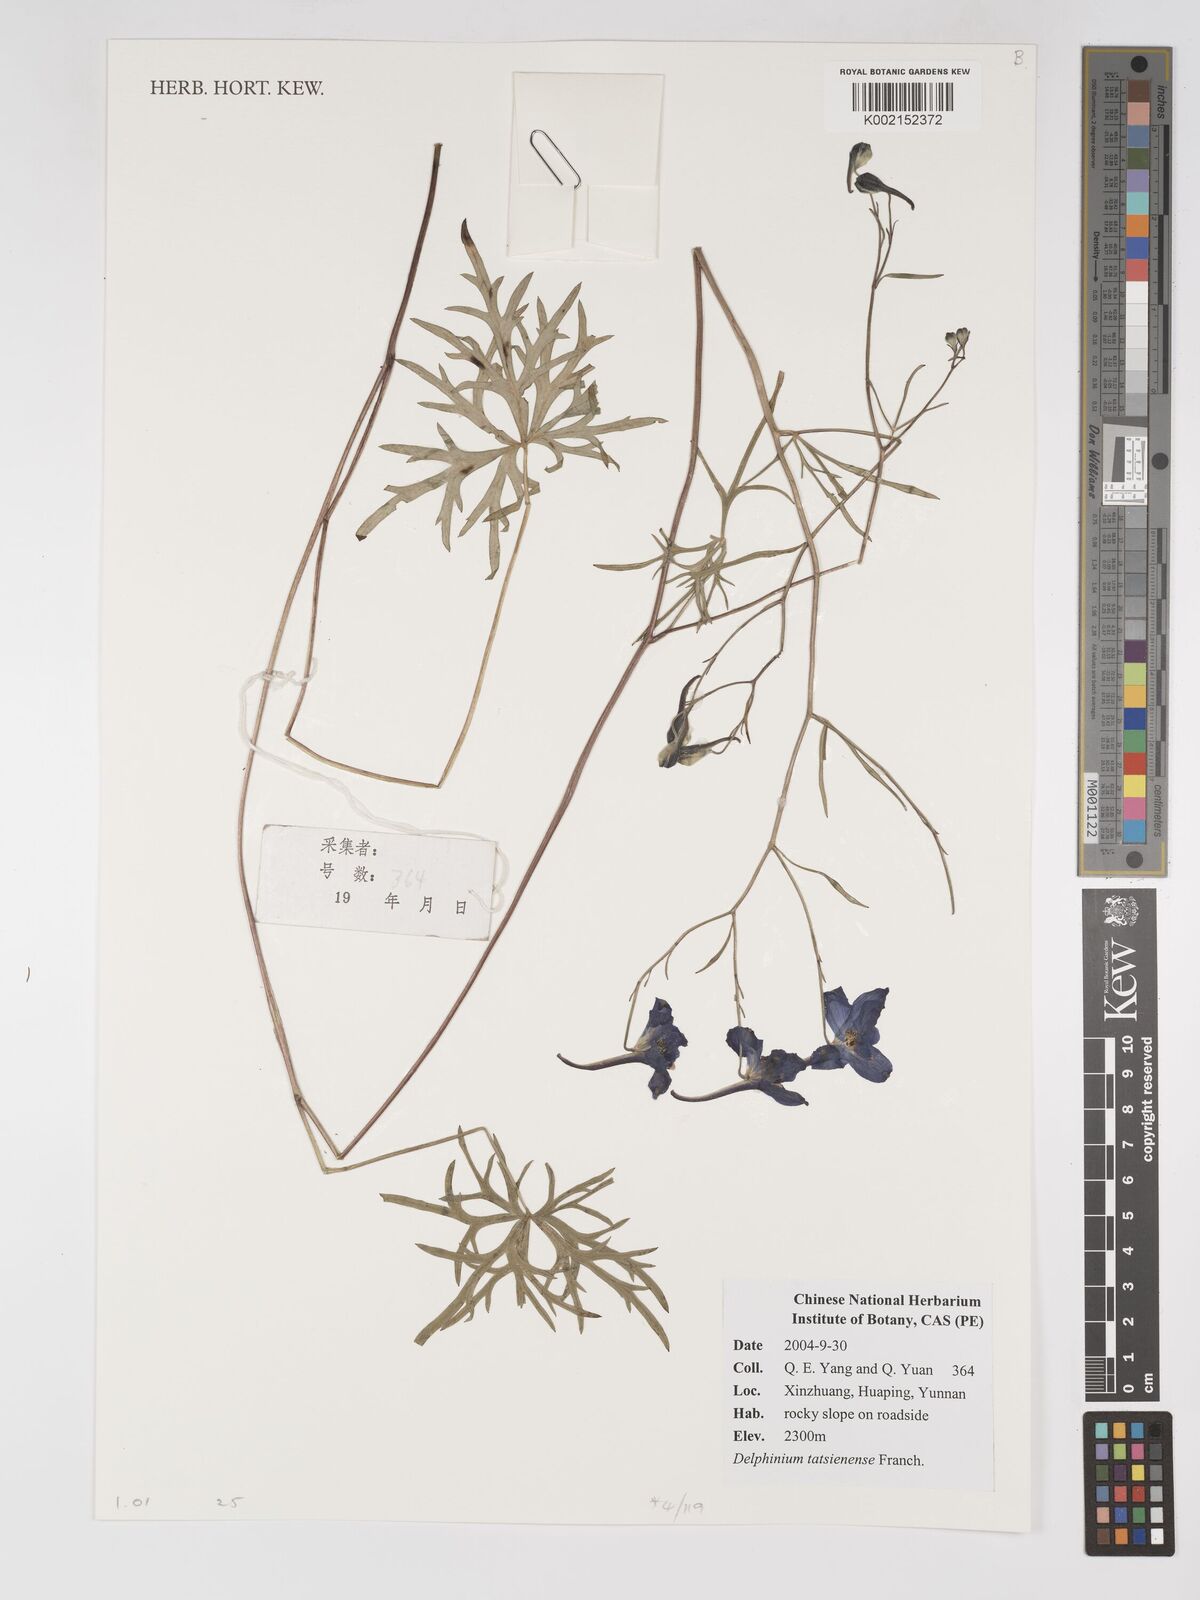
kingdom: Plantae
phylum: Tracheophyta
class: Magnoliopsida
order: Ranunculales
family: Ranunculaceae
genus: Delphinium
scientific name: Delphinium grandiflorum
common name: Siberian larkspur
